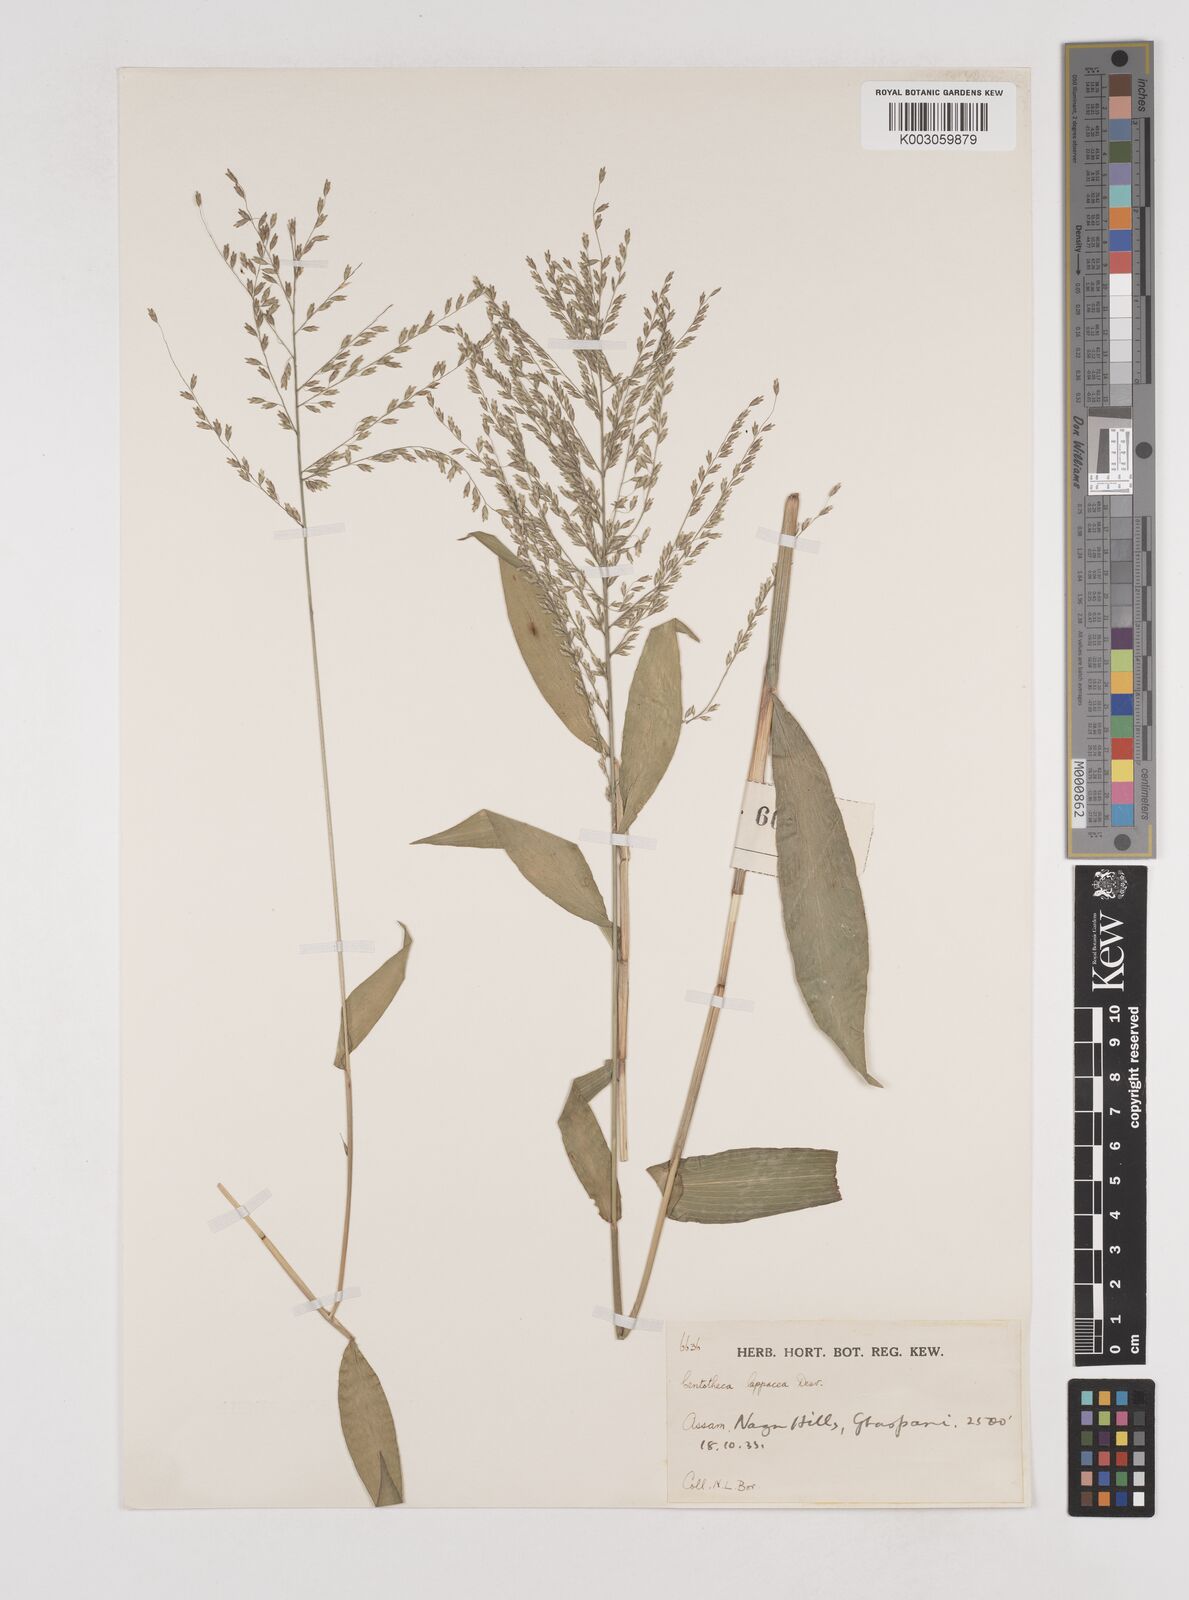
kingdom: Plantae
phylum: Tracheophyta
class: Liliopsida
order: Poales
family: Poaceae
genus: Centotheca
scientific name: Centotheca lappacea
